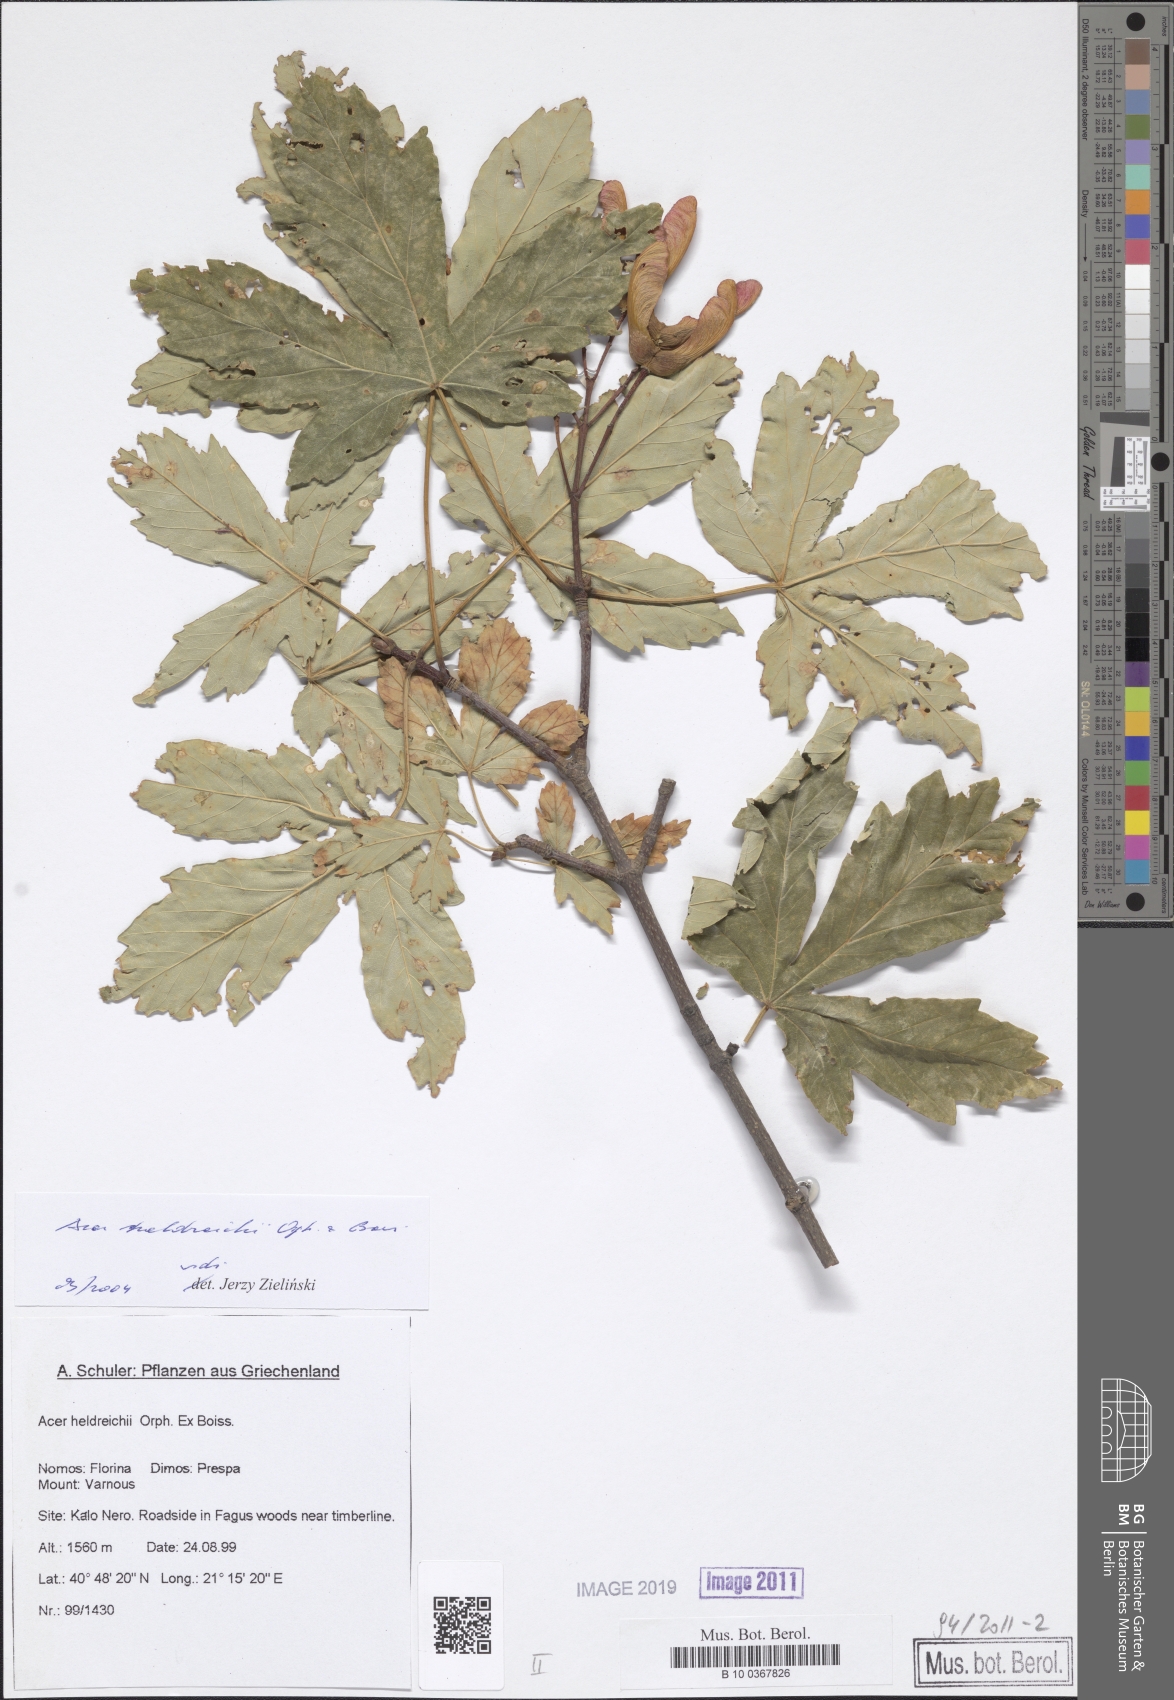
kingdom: Plantae
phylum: Tracheophyta
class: Magnoliopsida
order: Sapindales
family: Sapindaceae
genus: Acer
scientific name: Acer heldreichii
